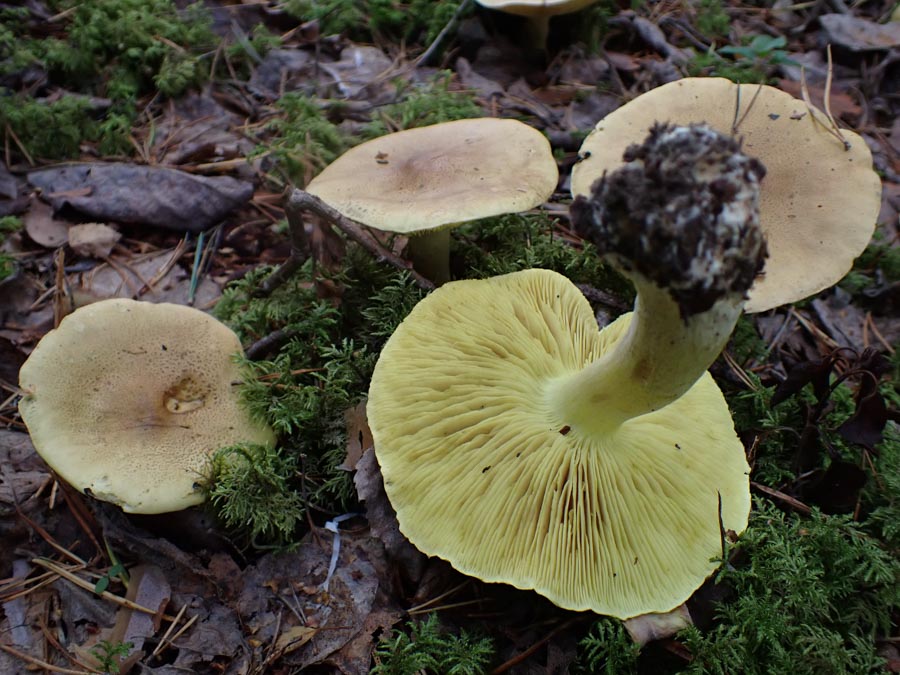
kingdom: Fungi
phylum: Basidiomycota
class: Agaricomycetes
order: Agaricales
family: Tricholomataceae
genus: Tricholoma
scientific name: Tricholoma frondosae
